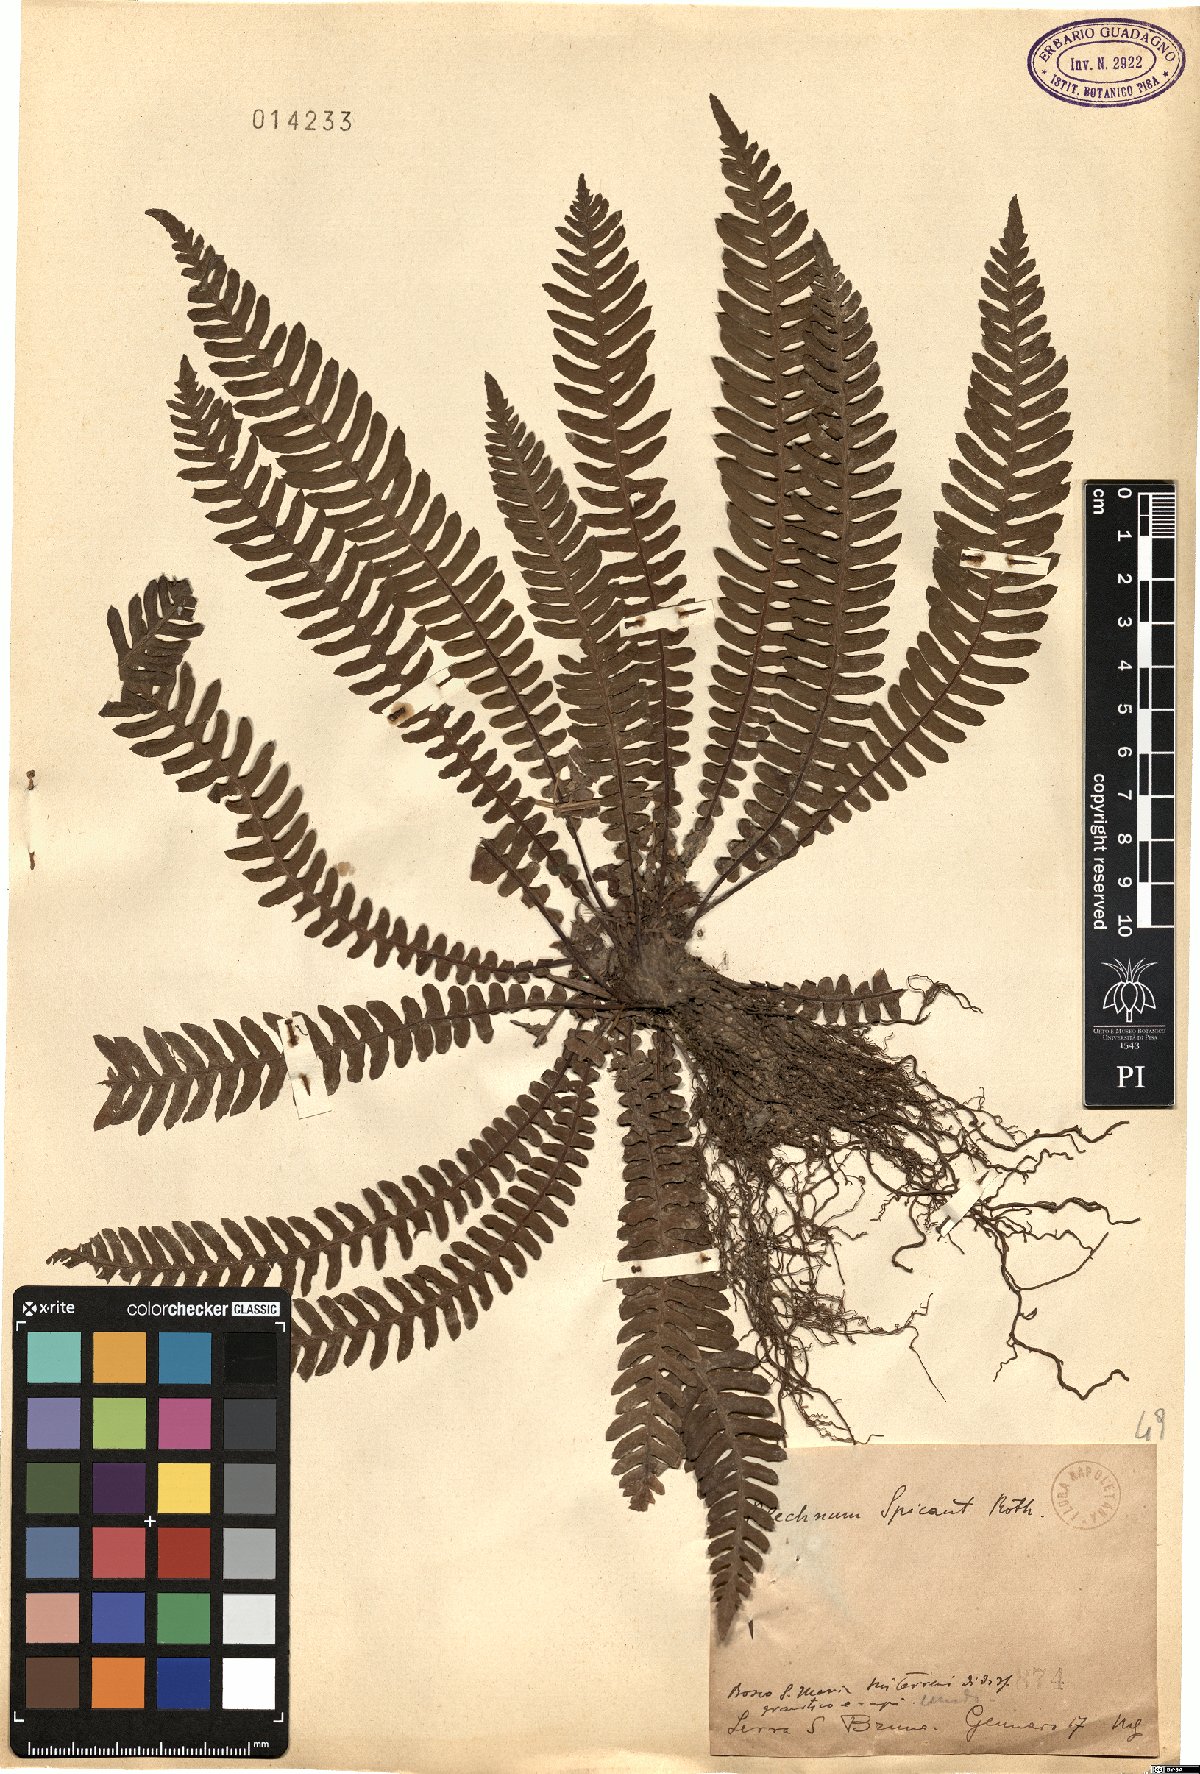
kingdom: Plantae
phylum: Tracheophyta
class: Polypodiopsida
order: Polypodiales
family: Blechnaceae
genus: Struthiopteris
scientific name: Struthiopteris spicant
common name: Deer fern
